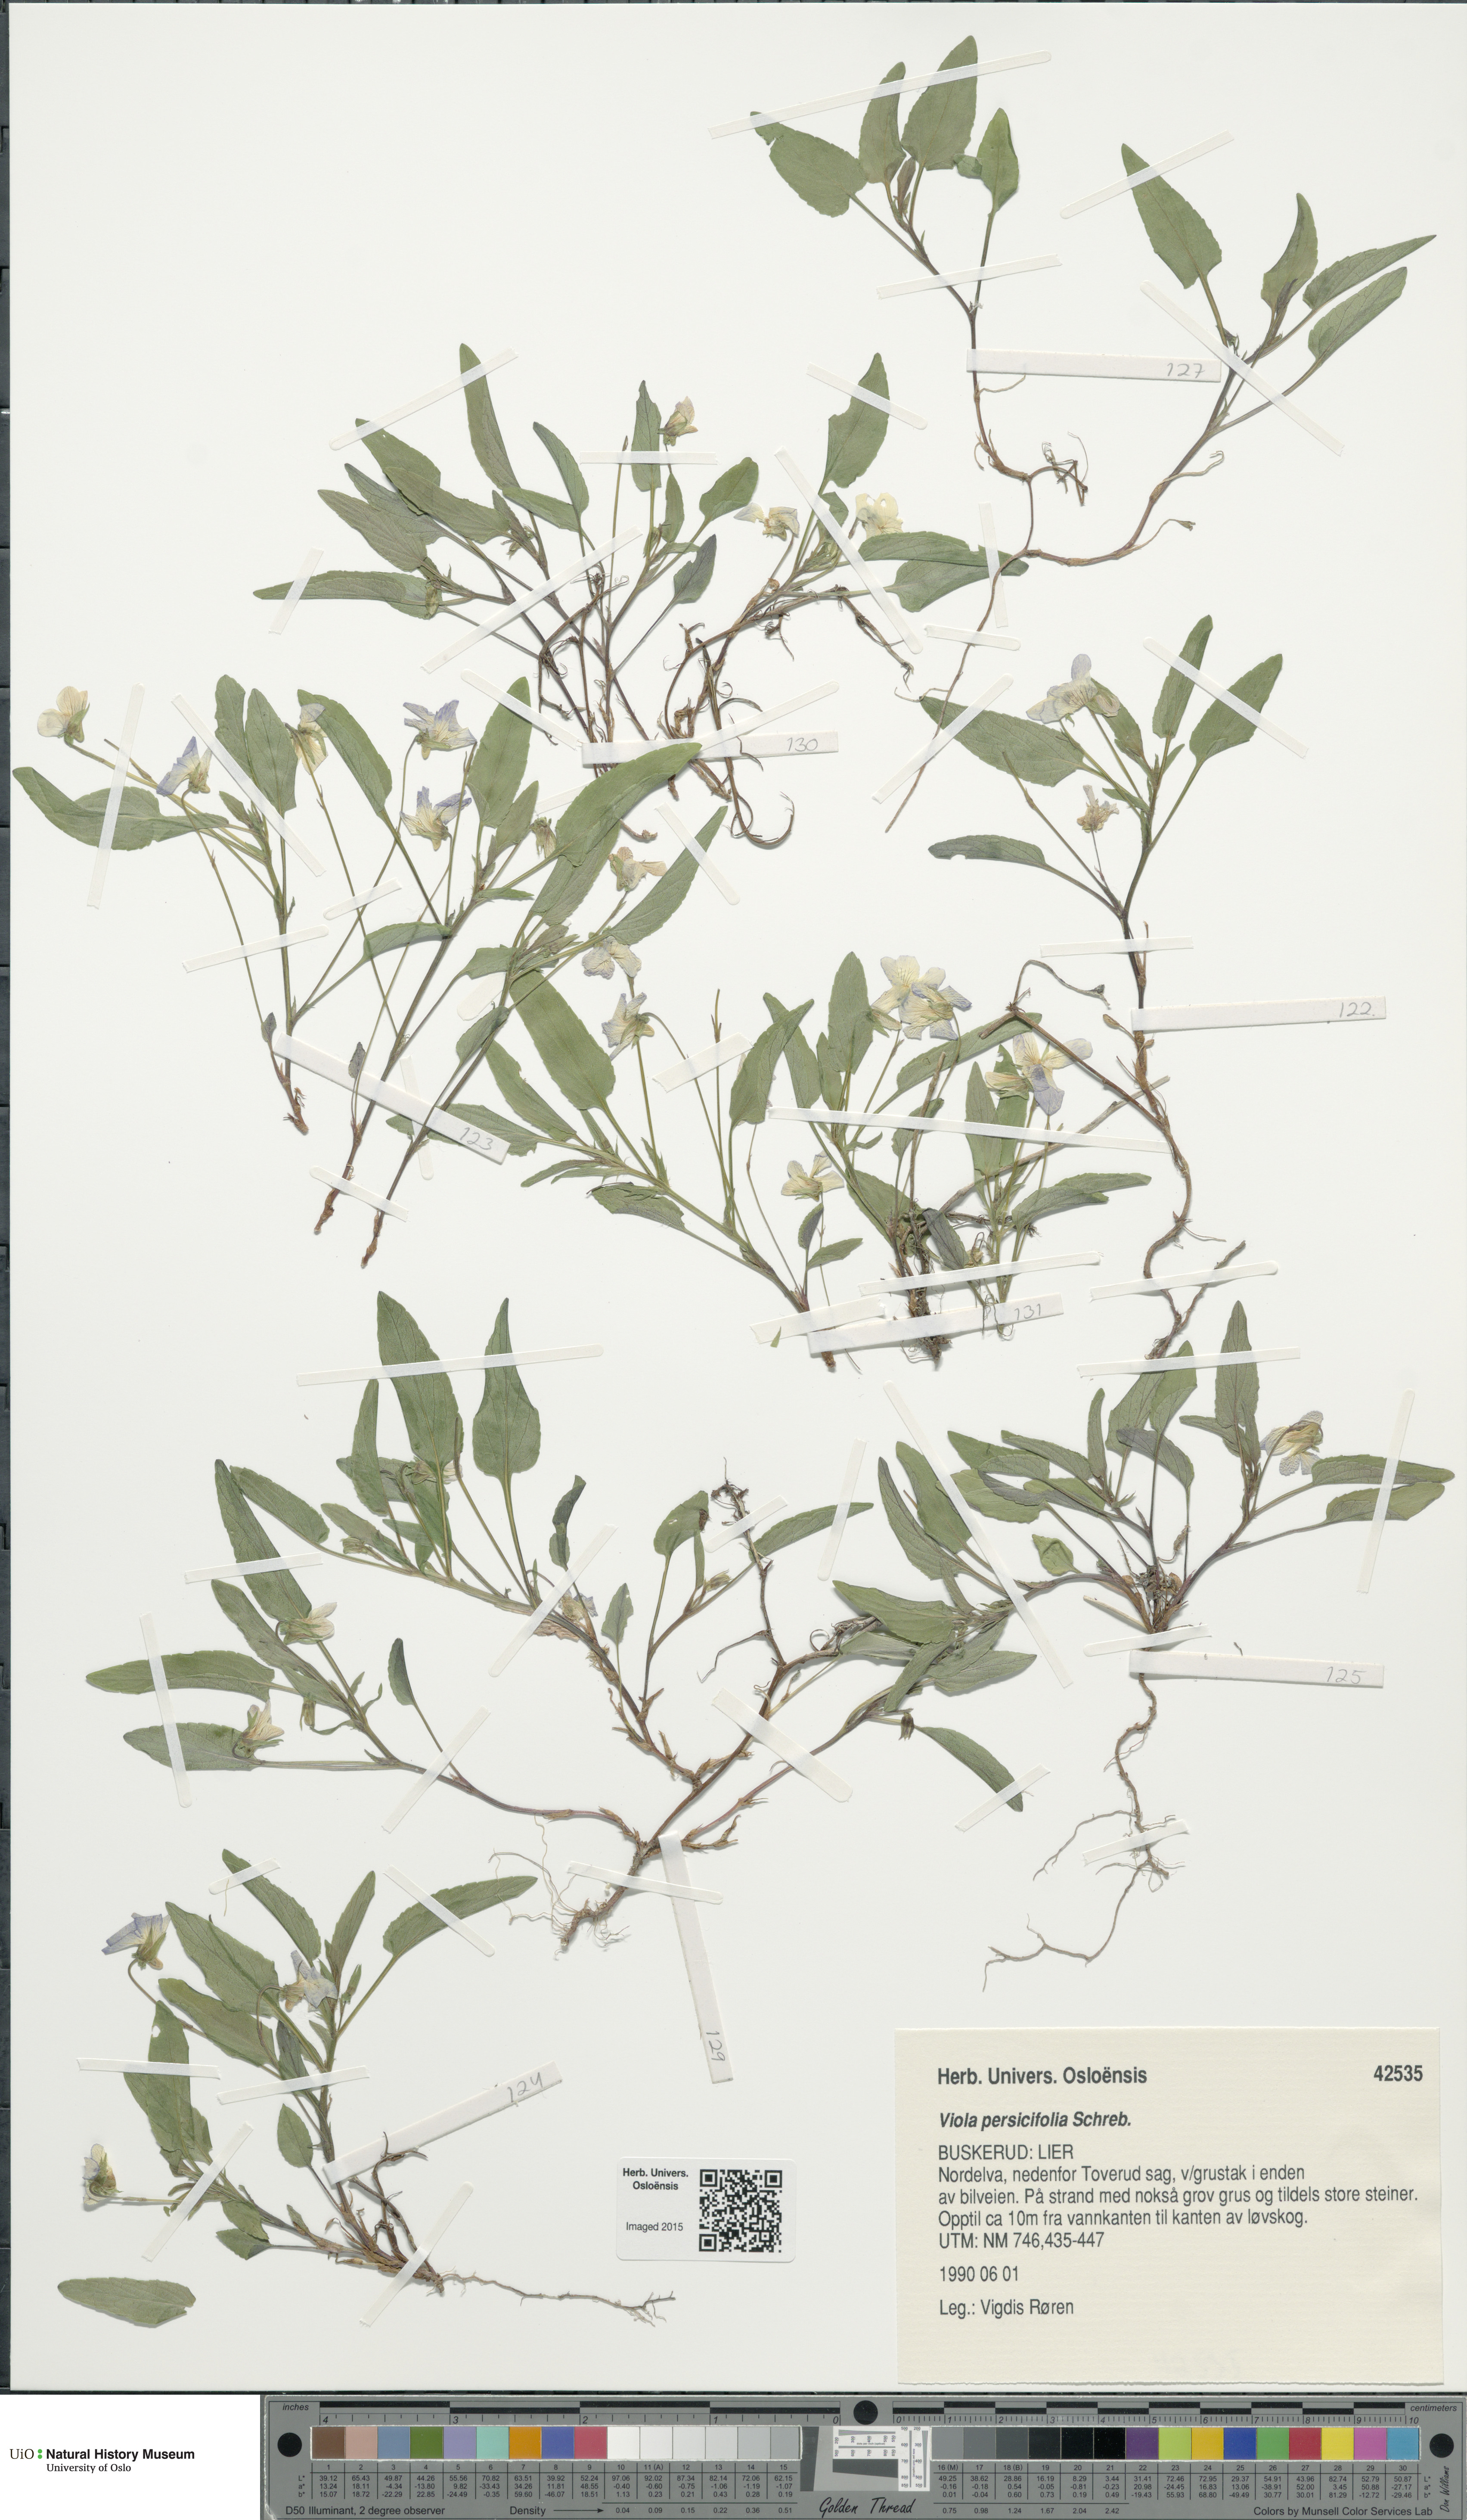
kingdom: Plantae
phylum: Tracheophyta
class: Magnoliopsida
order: Malpighiales
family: Violaceae
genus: Viola
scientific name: Viola stagnina
